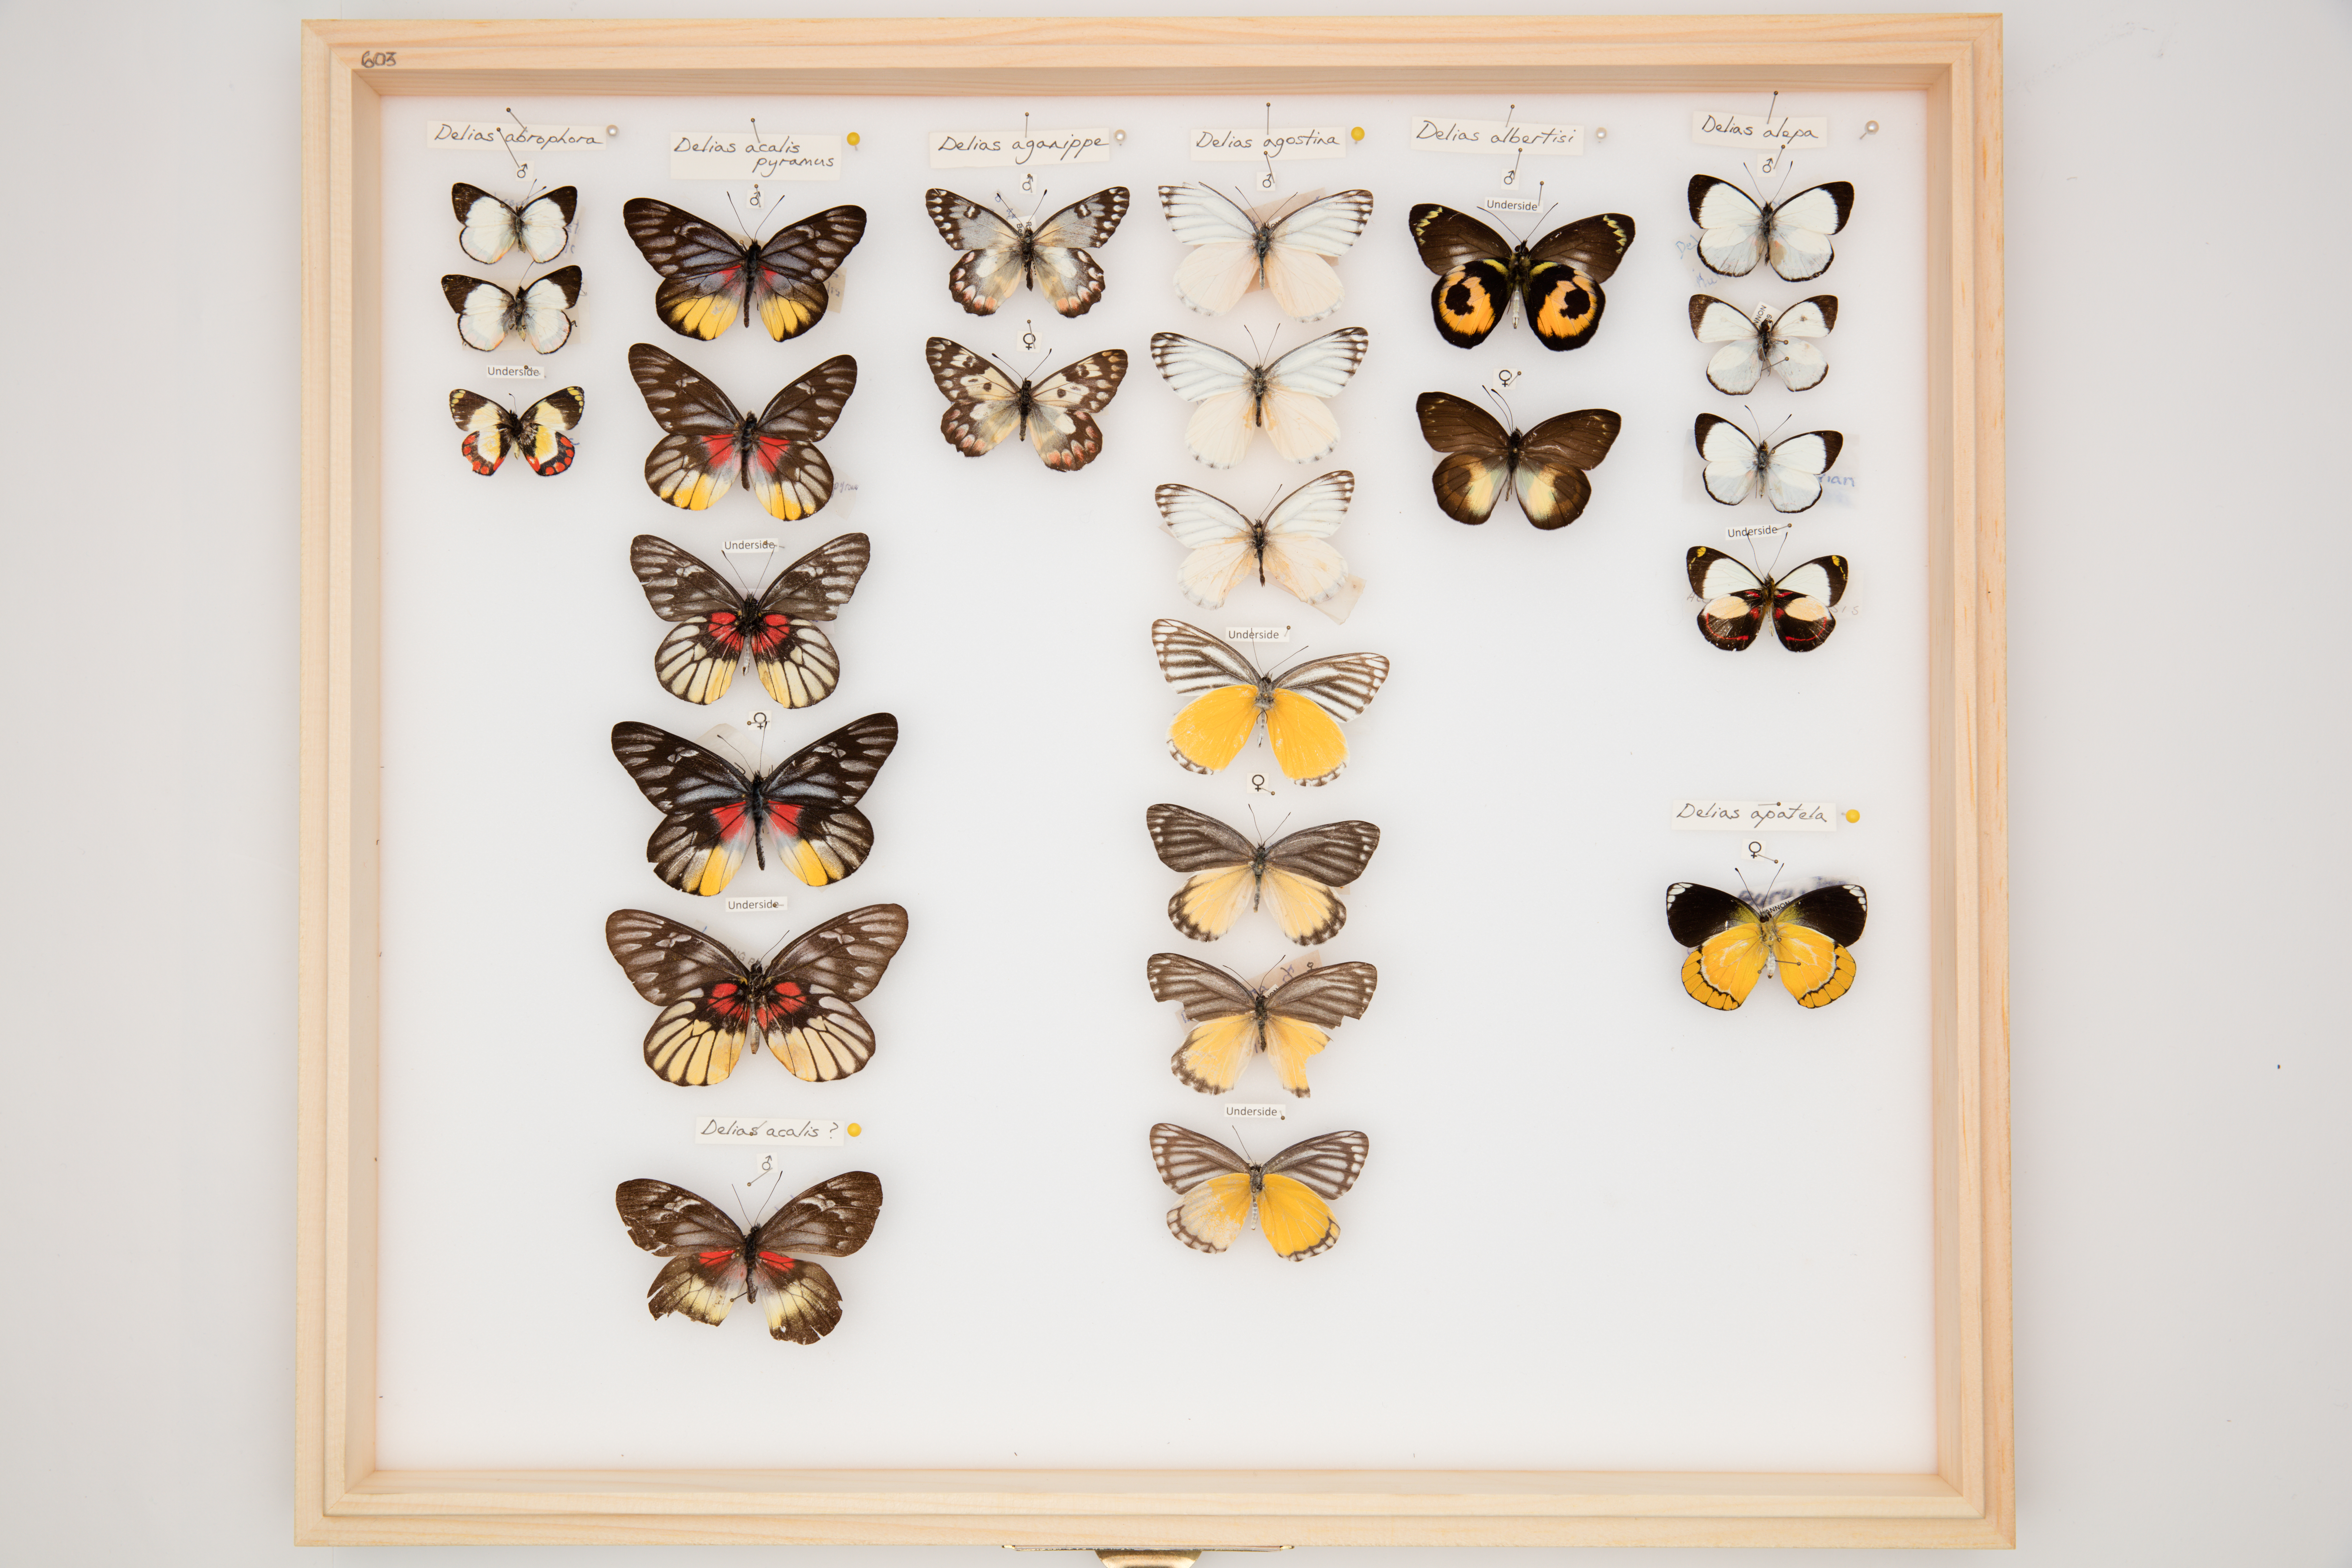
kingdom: Animalia
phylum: Arthropoda
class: Insecta
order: Lepidoptera
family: Pieridae
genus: Delias
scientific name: Delias abrophora
